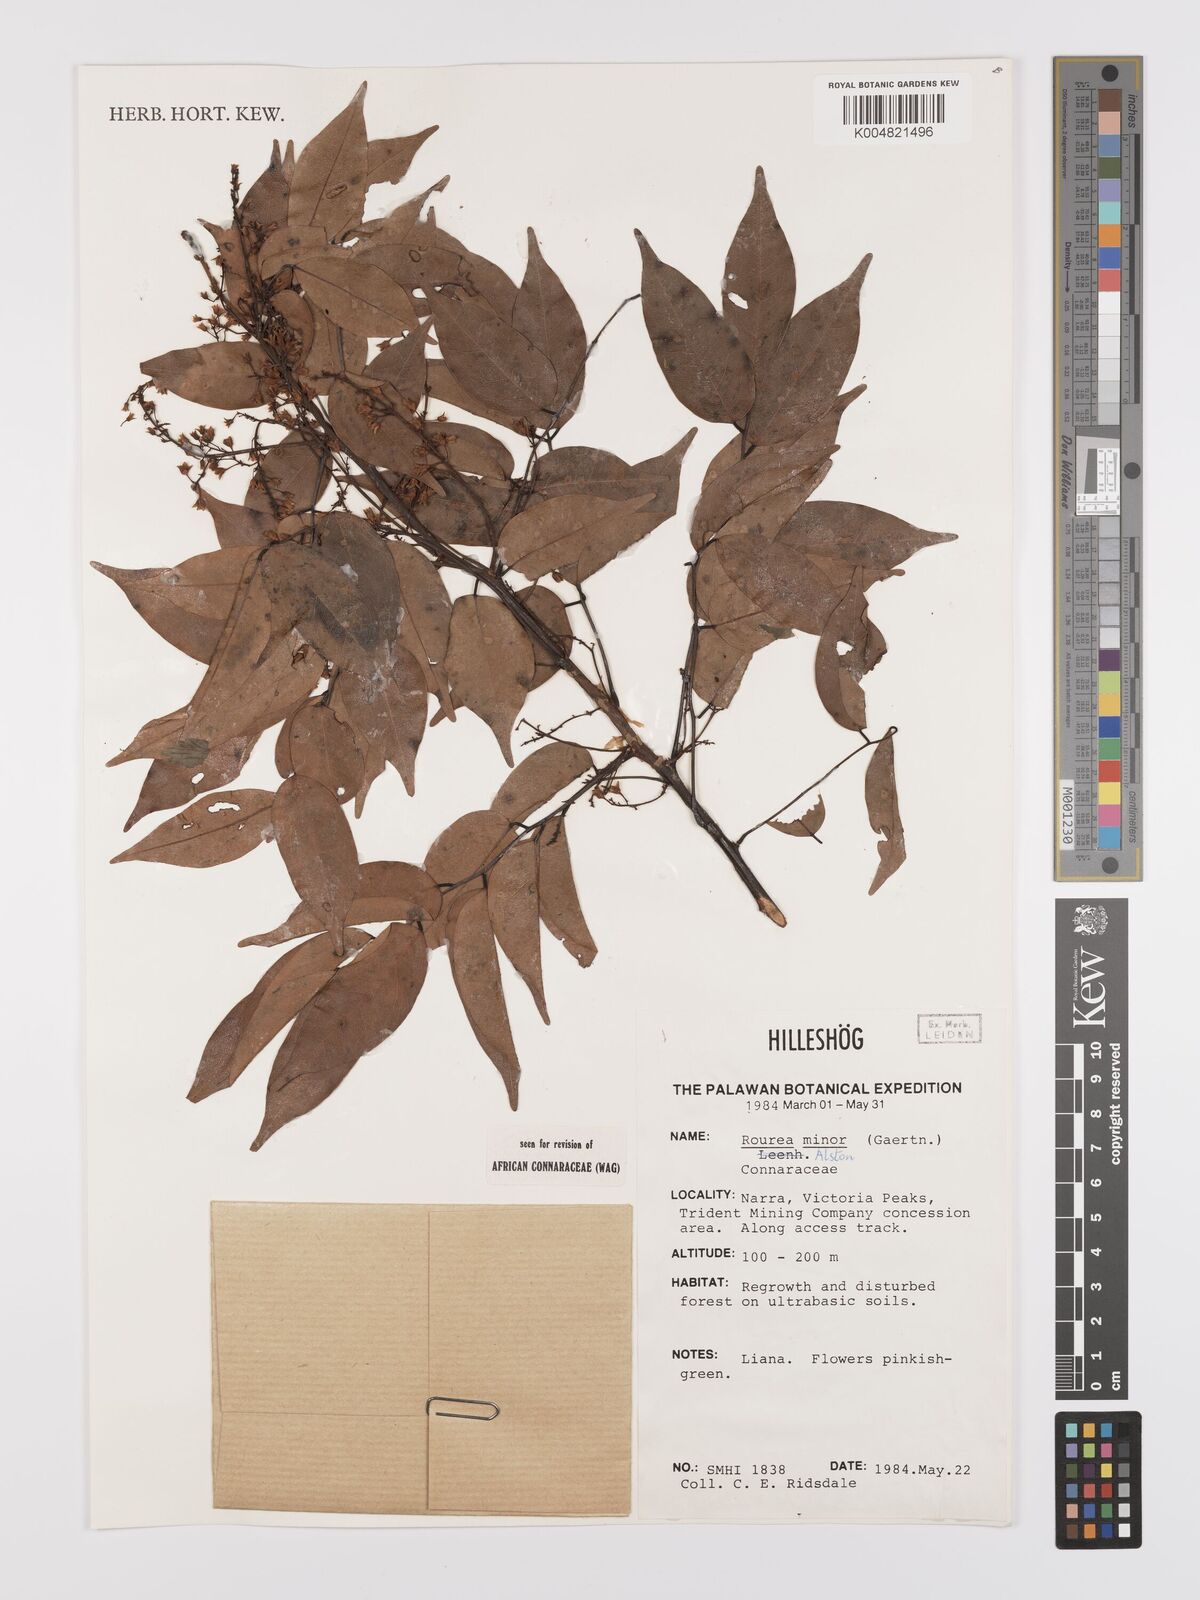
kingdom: Plantae
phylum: Tracheophyta
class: Magnoliopsida
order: Oxalidales
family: Connaraceae
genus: Rourea
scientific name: Rourea minor
